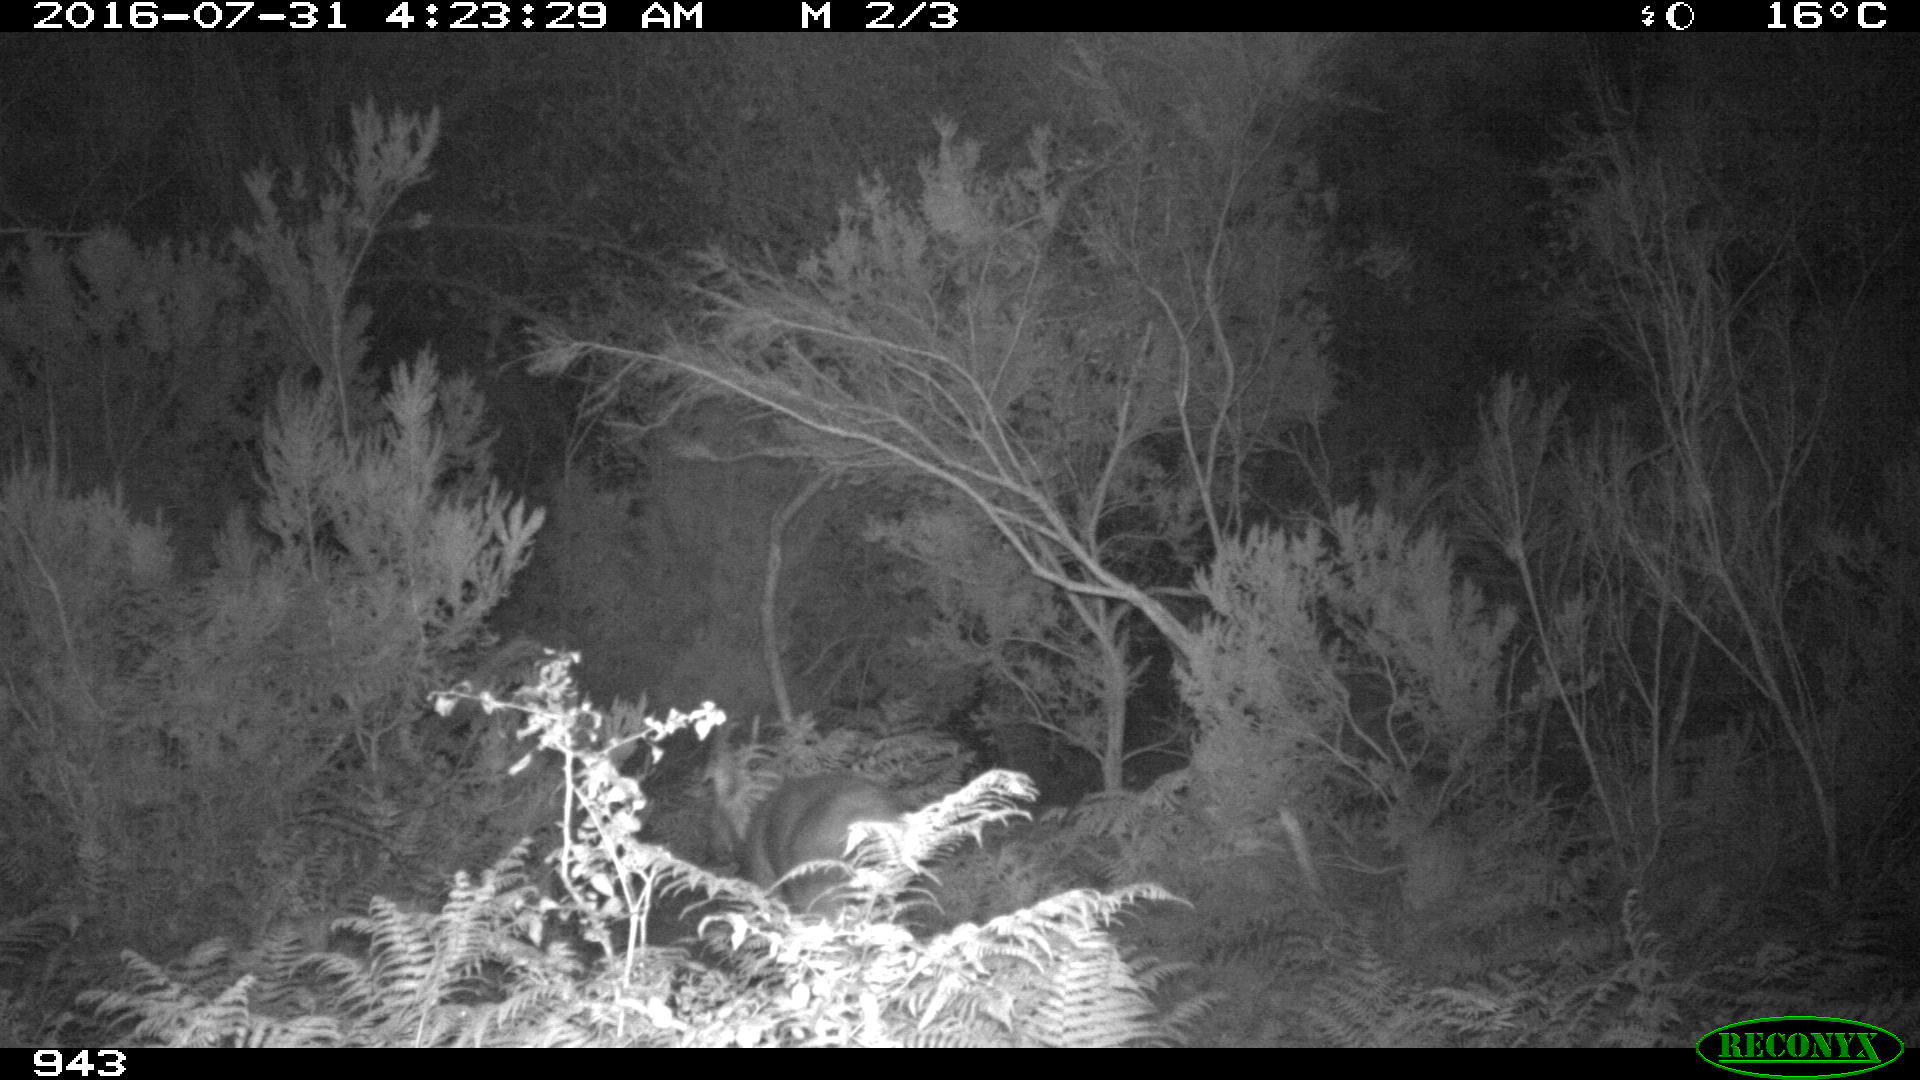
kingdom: Animalia
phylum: Chordata
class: Mammalia
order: Artiodactyla
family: Cervidae
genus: Capreolus
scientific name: Capreolus capreolus
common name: Western roe deer
